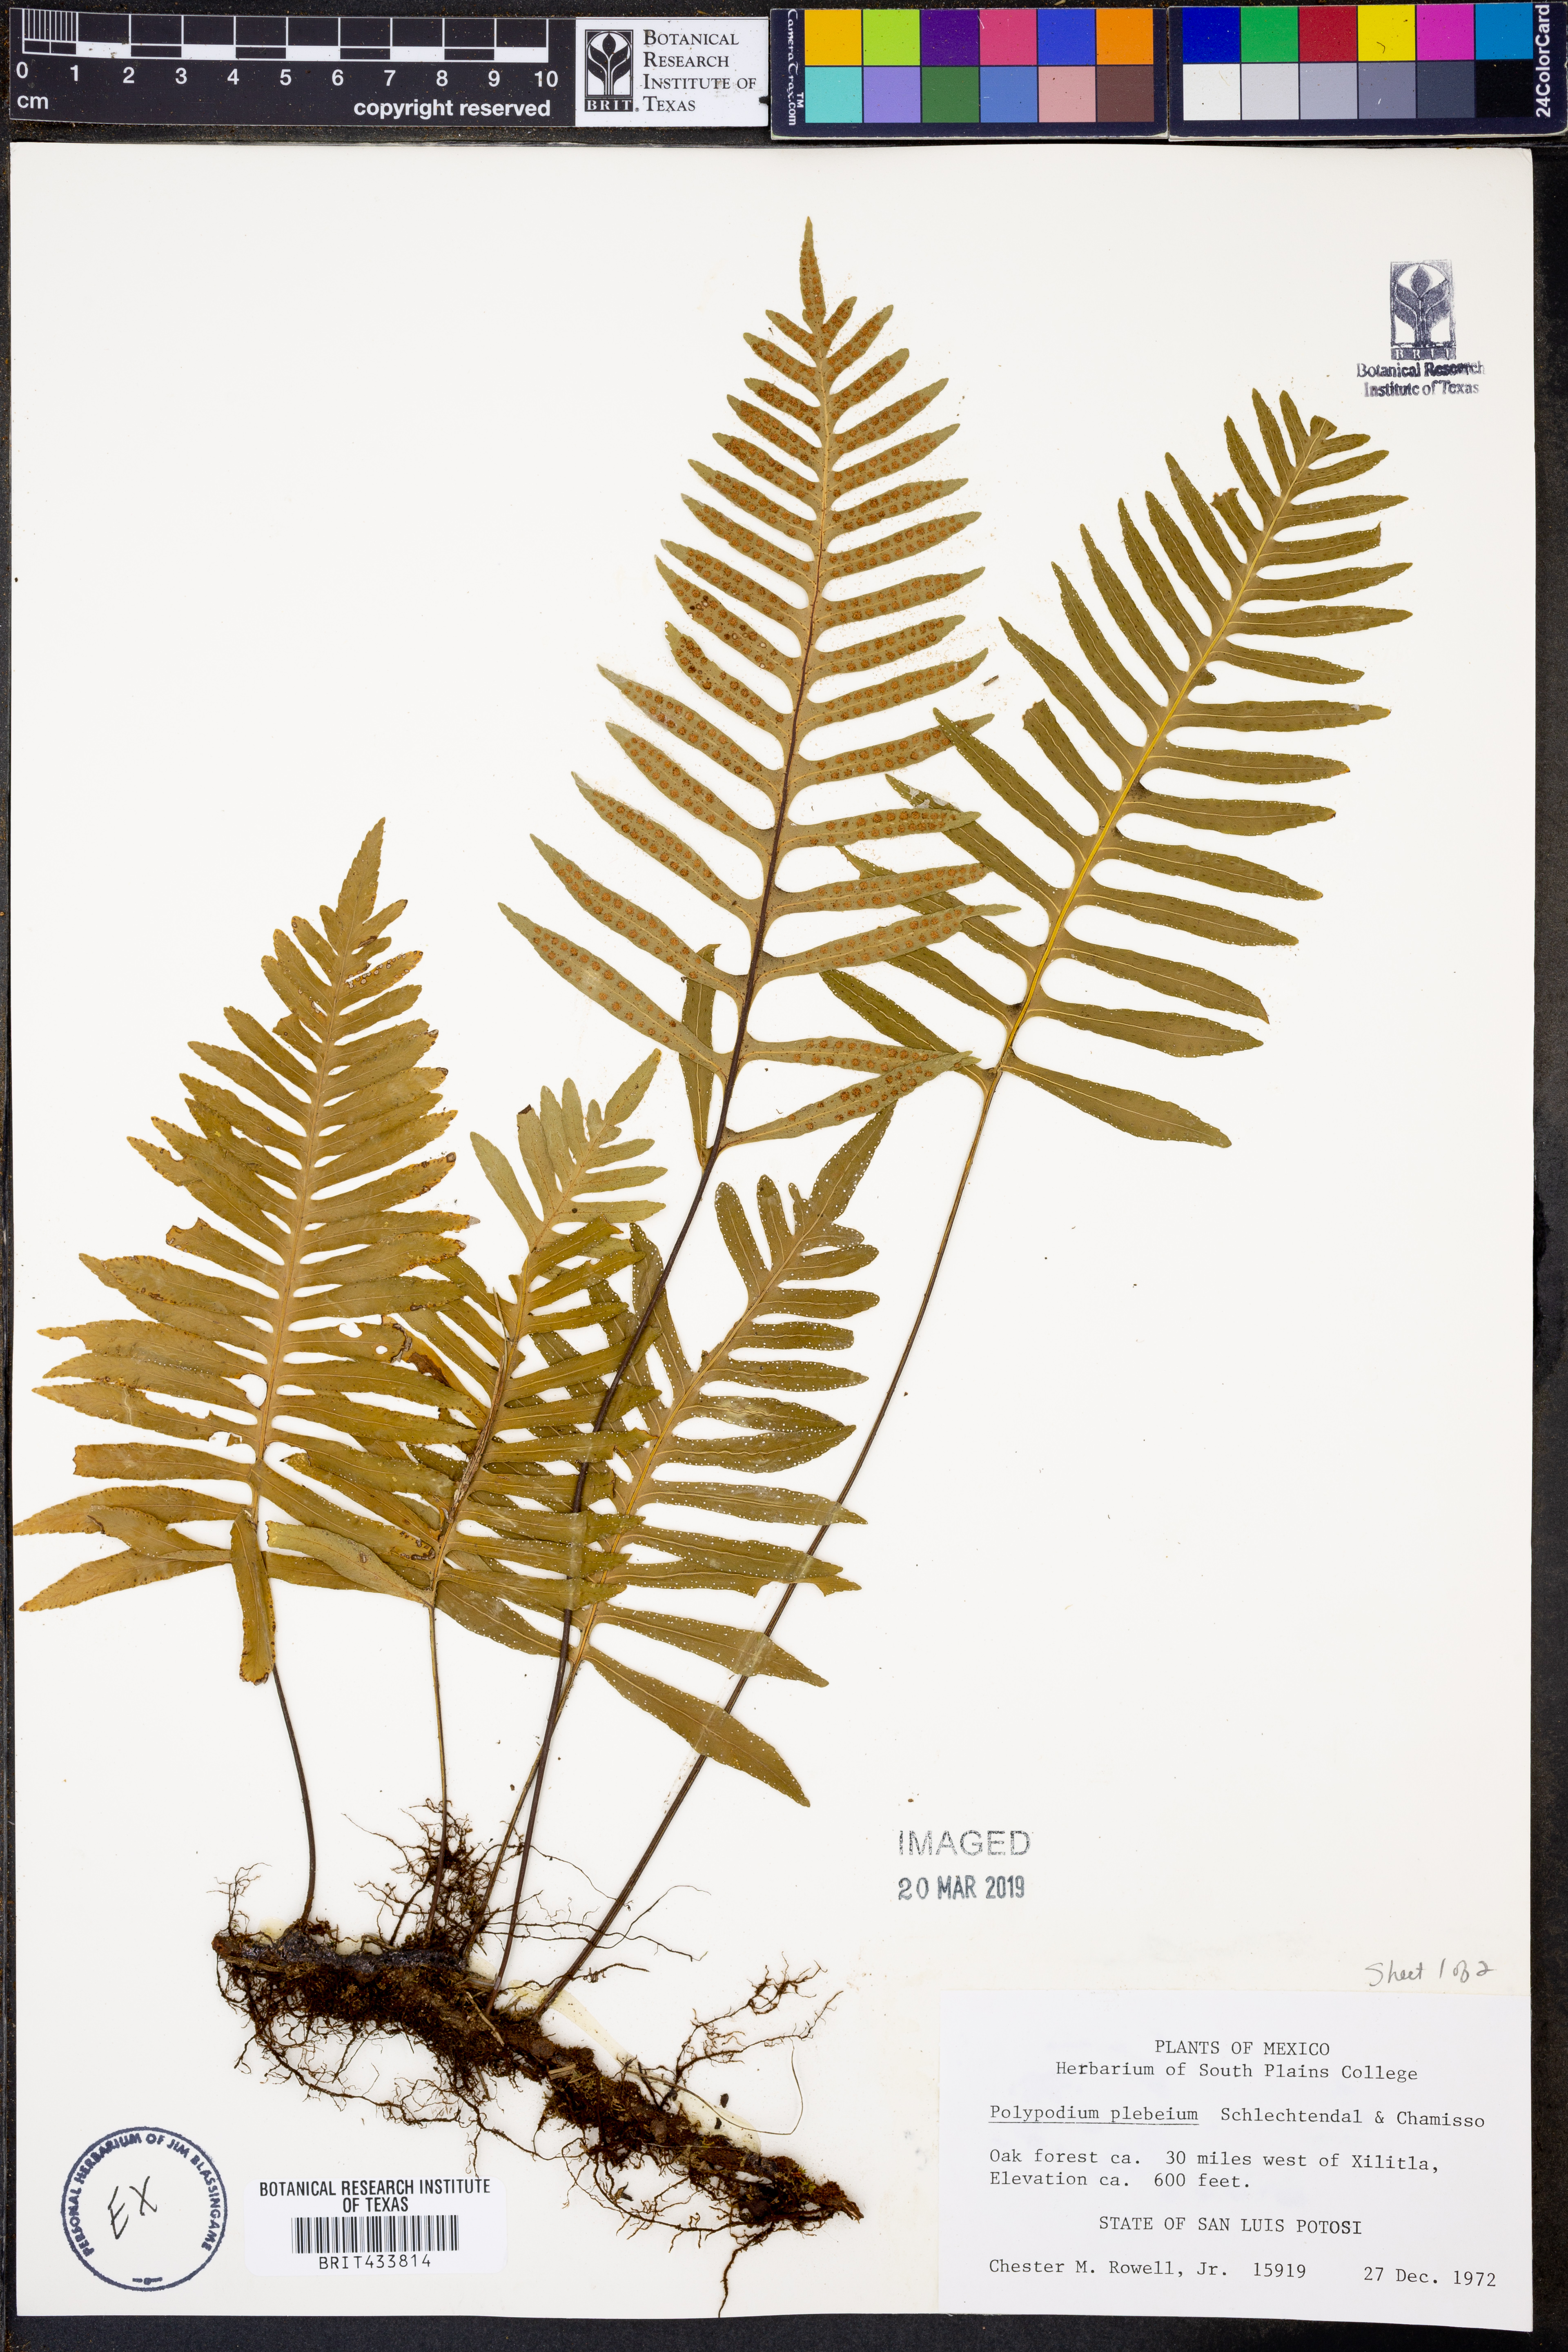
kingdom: Plantae
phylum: Tracheophyta
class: Polypodiopsida
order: Polypodiales
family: Polypodiaceae
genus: Pleopeltis
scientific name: Pleopeltis plebeia
